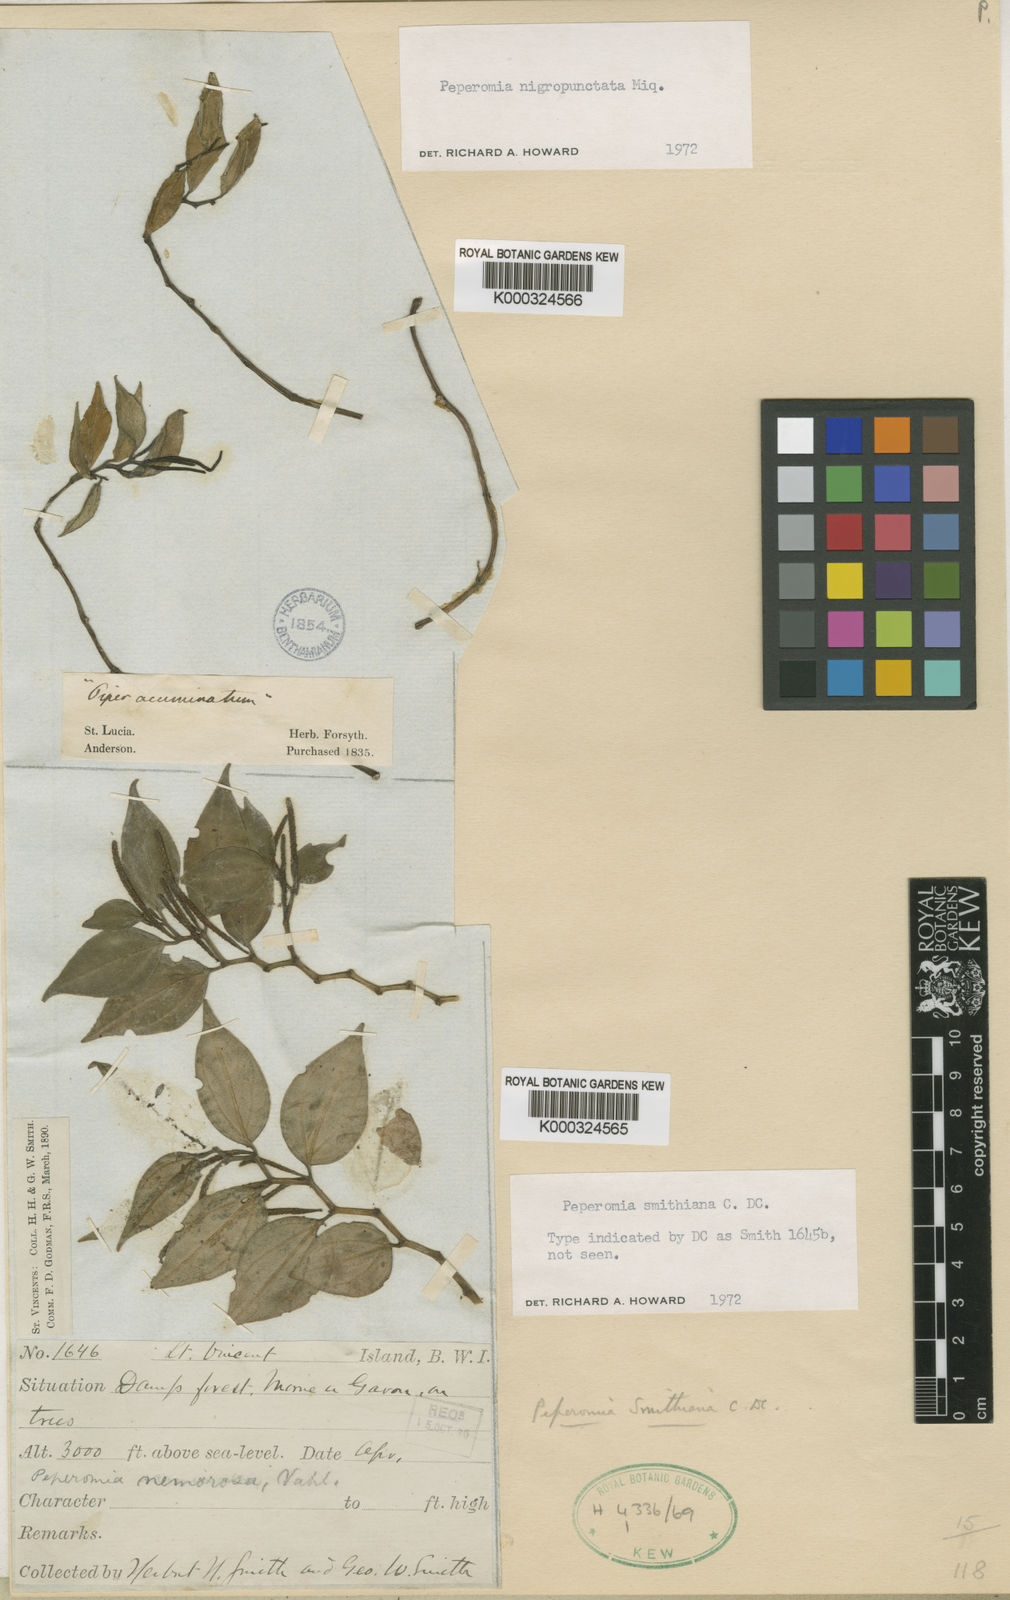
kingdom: Plantae
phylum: Tracheophyta
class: Magnoliopsida
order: Piperales
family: Piperaceae
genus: Peperomia
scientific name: Peperomia smithiana
